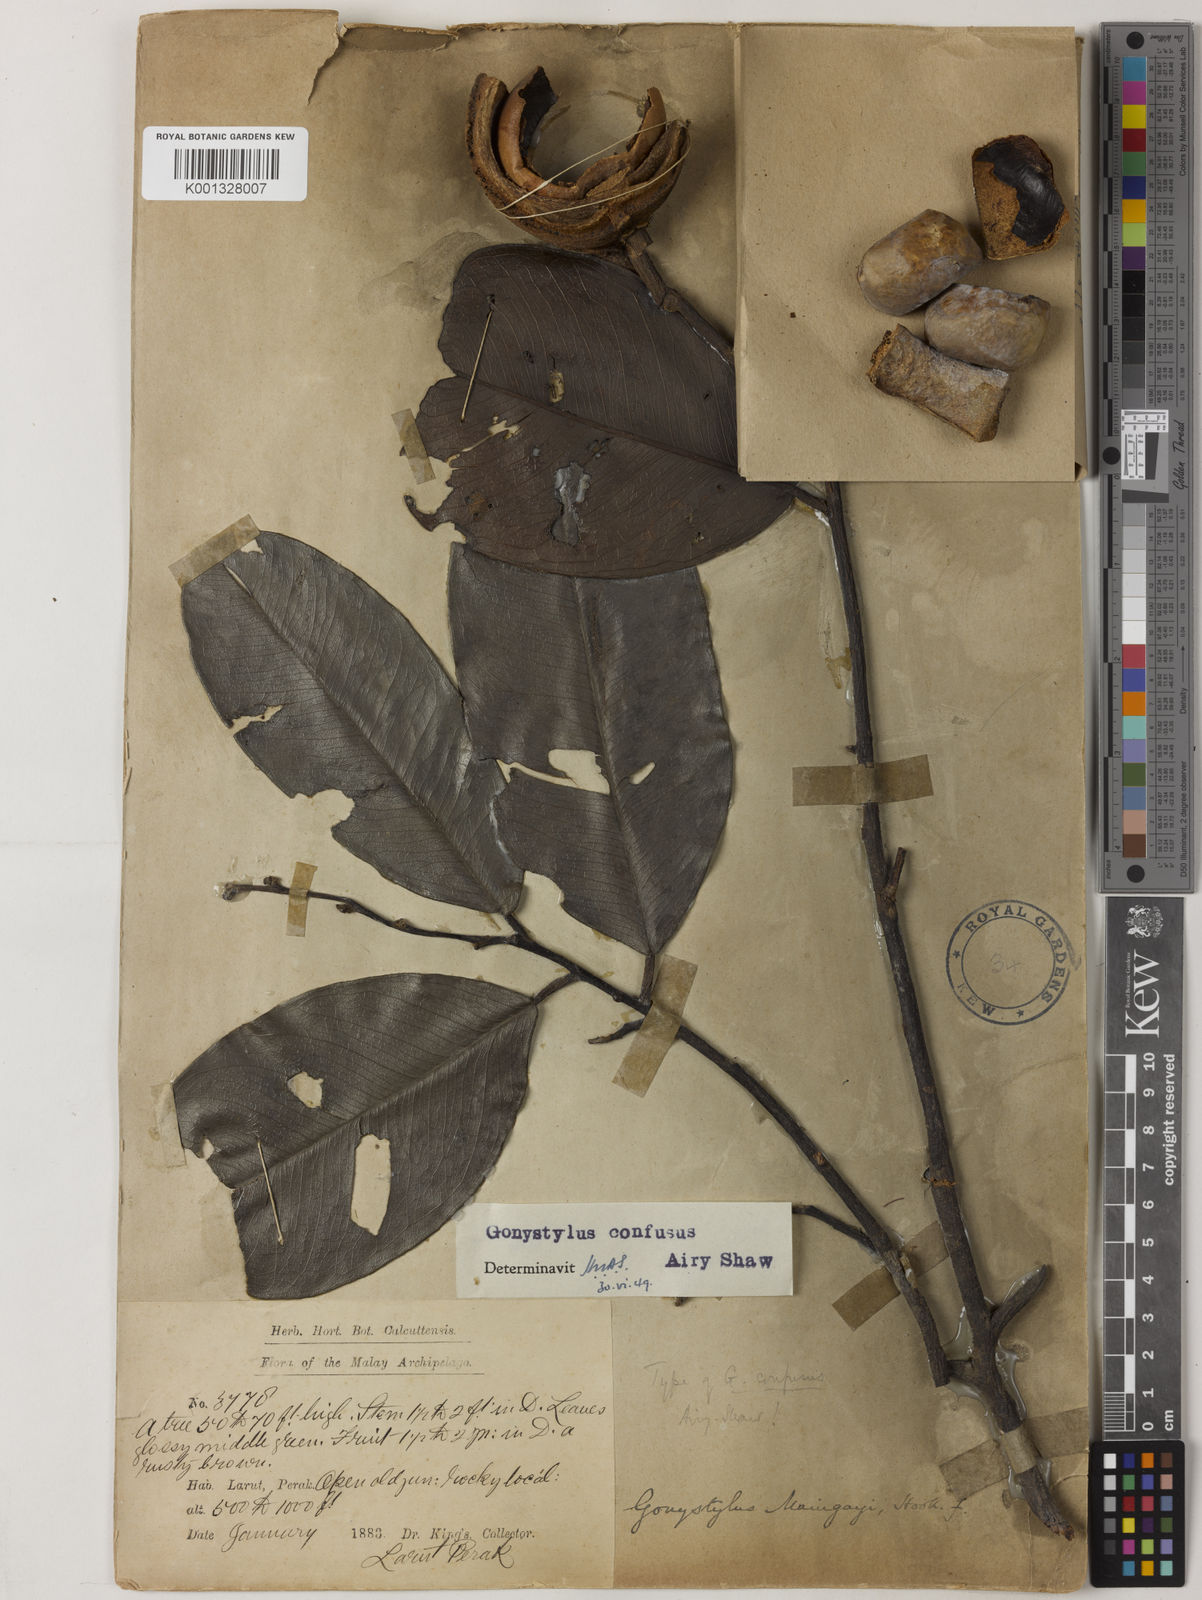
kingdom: Plantae
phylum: Tracheophyta
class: Magnoliopsida
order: Malvales
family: Thymelaeaceae
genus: Gonystylus
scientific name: Gonystylus confusus
